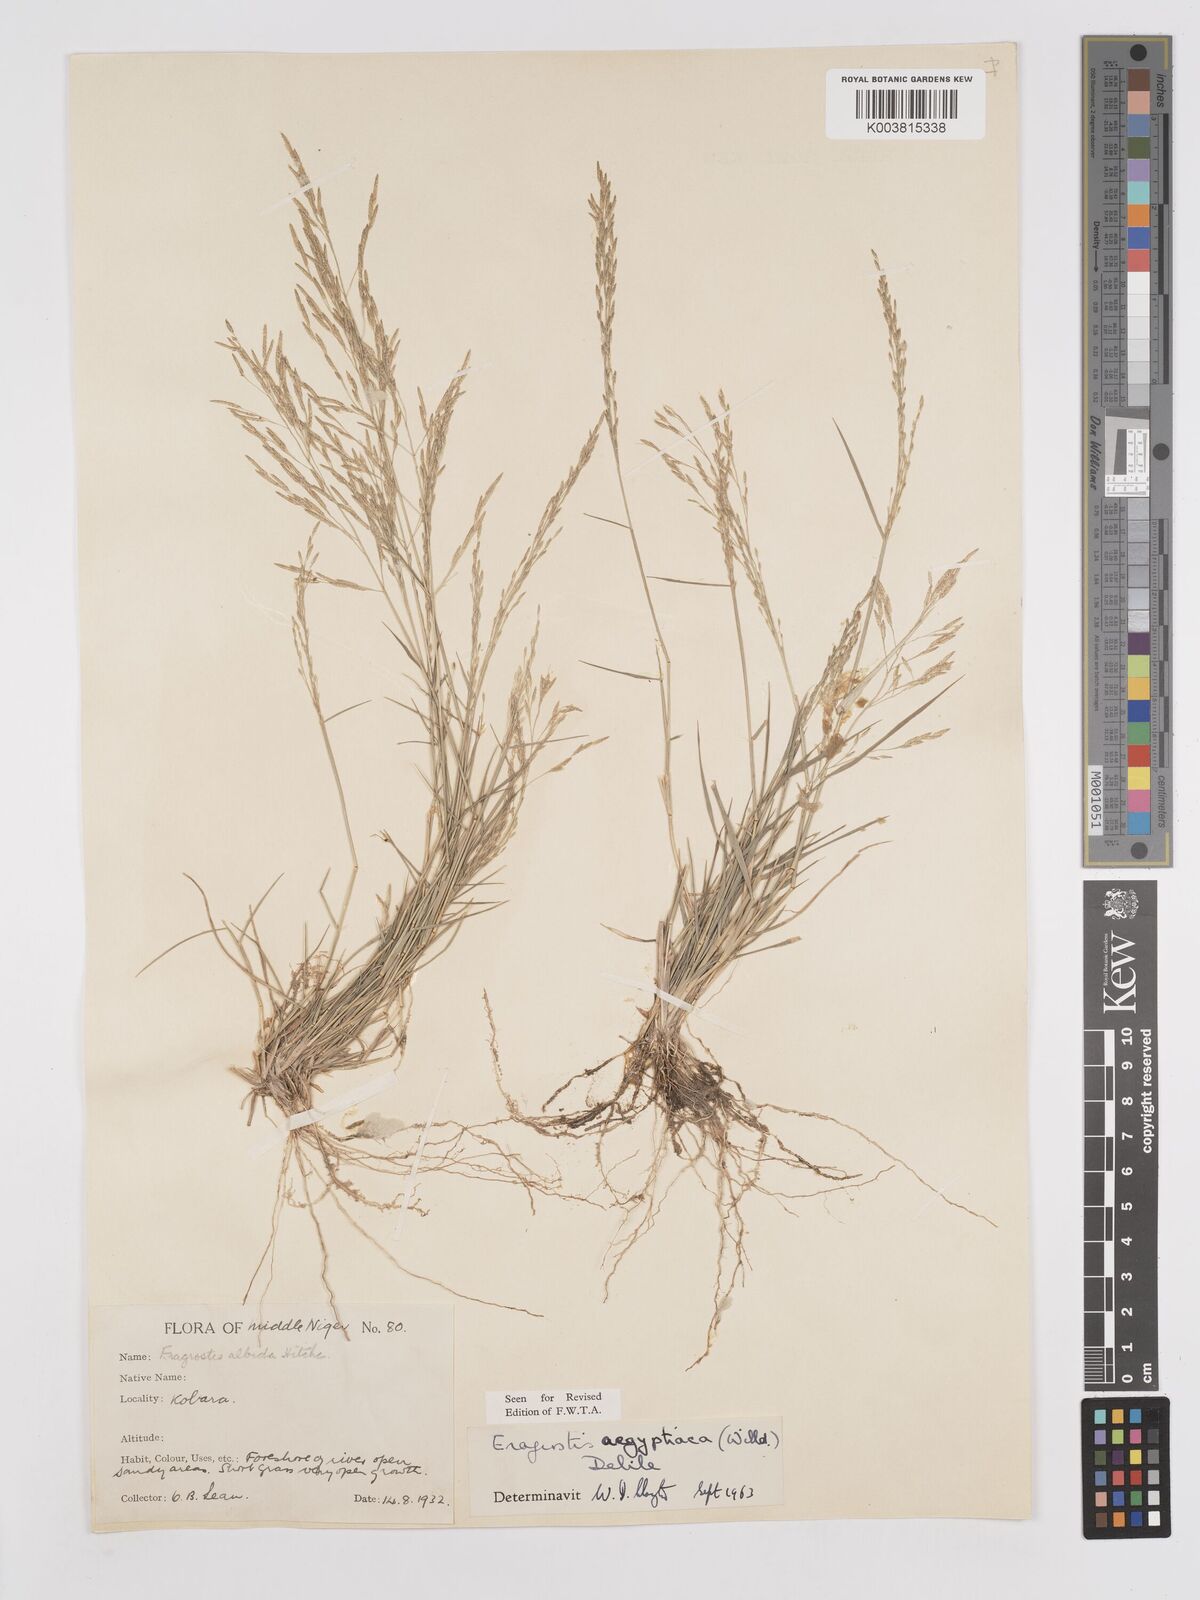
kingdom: Plantae
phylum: Tracheophyta
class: Liliopsida
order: Poales
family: Poaceae
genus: Eragrostis
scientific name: Eragrostis aegyptiaca
